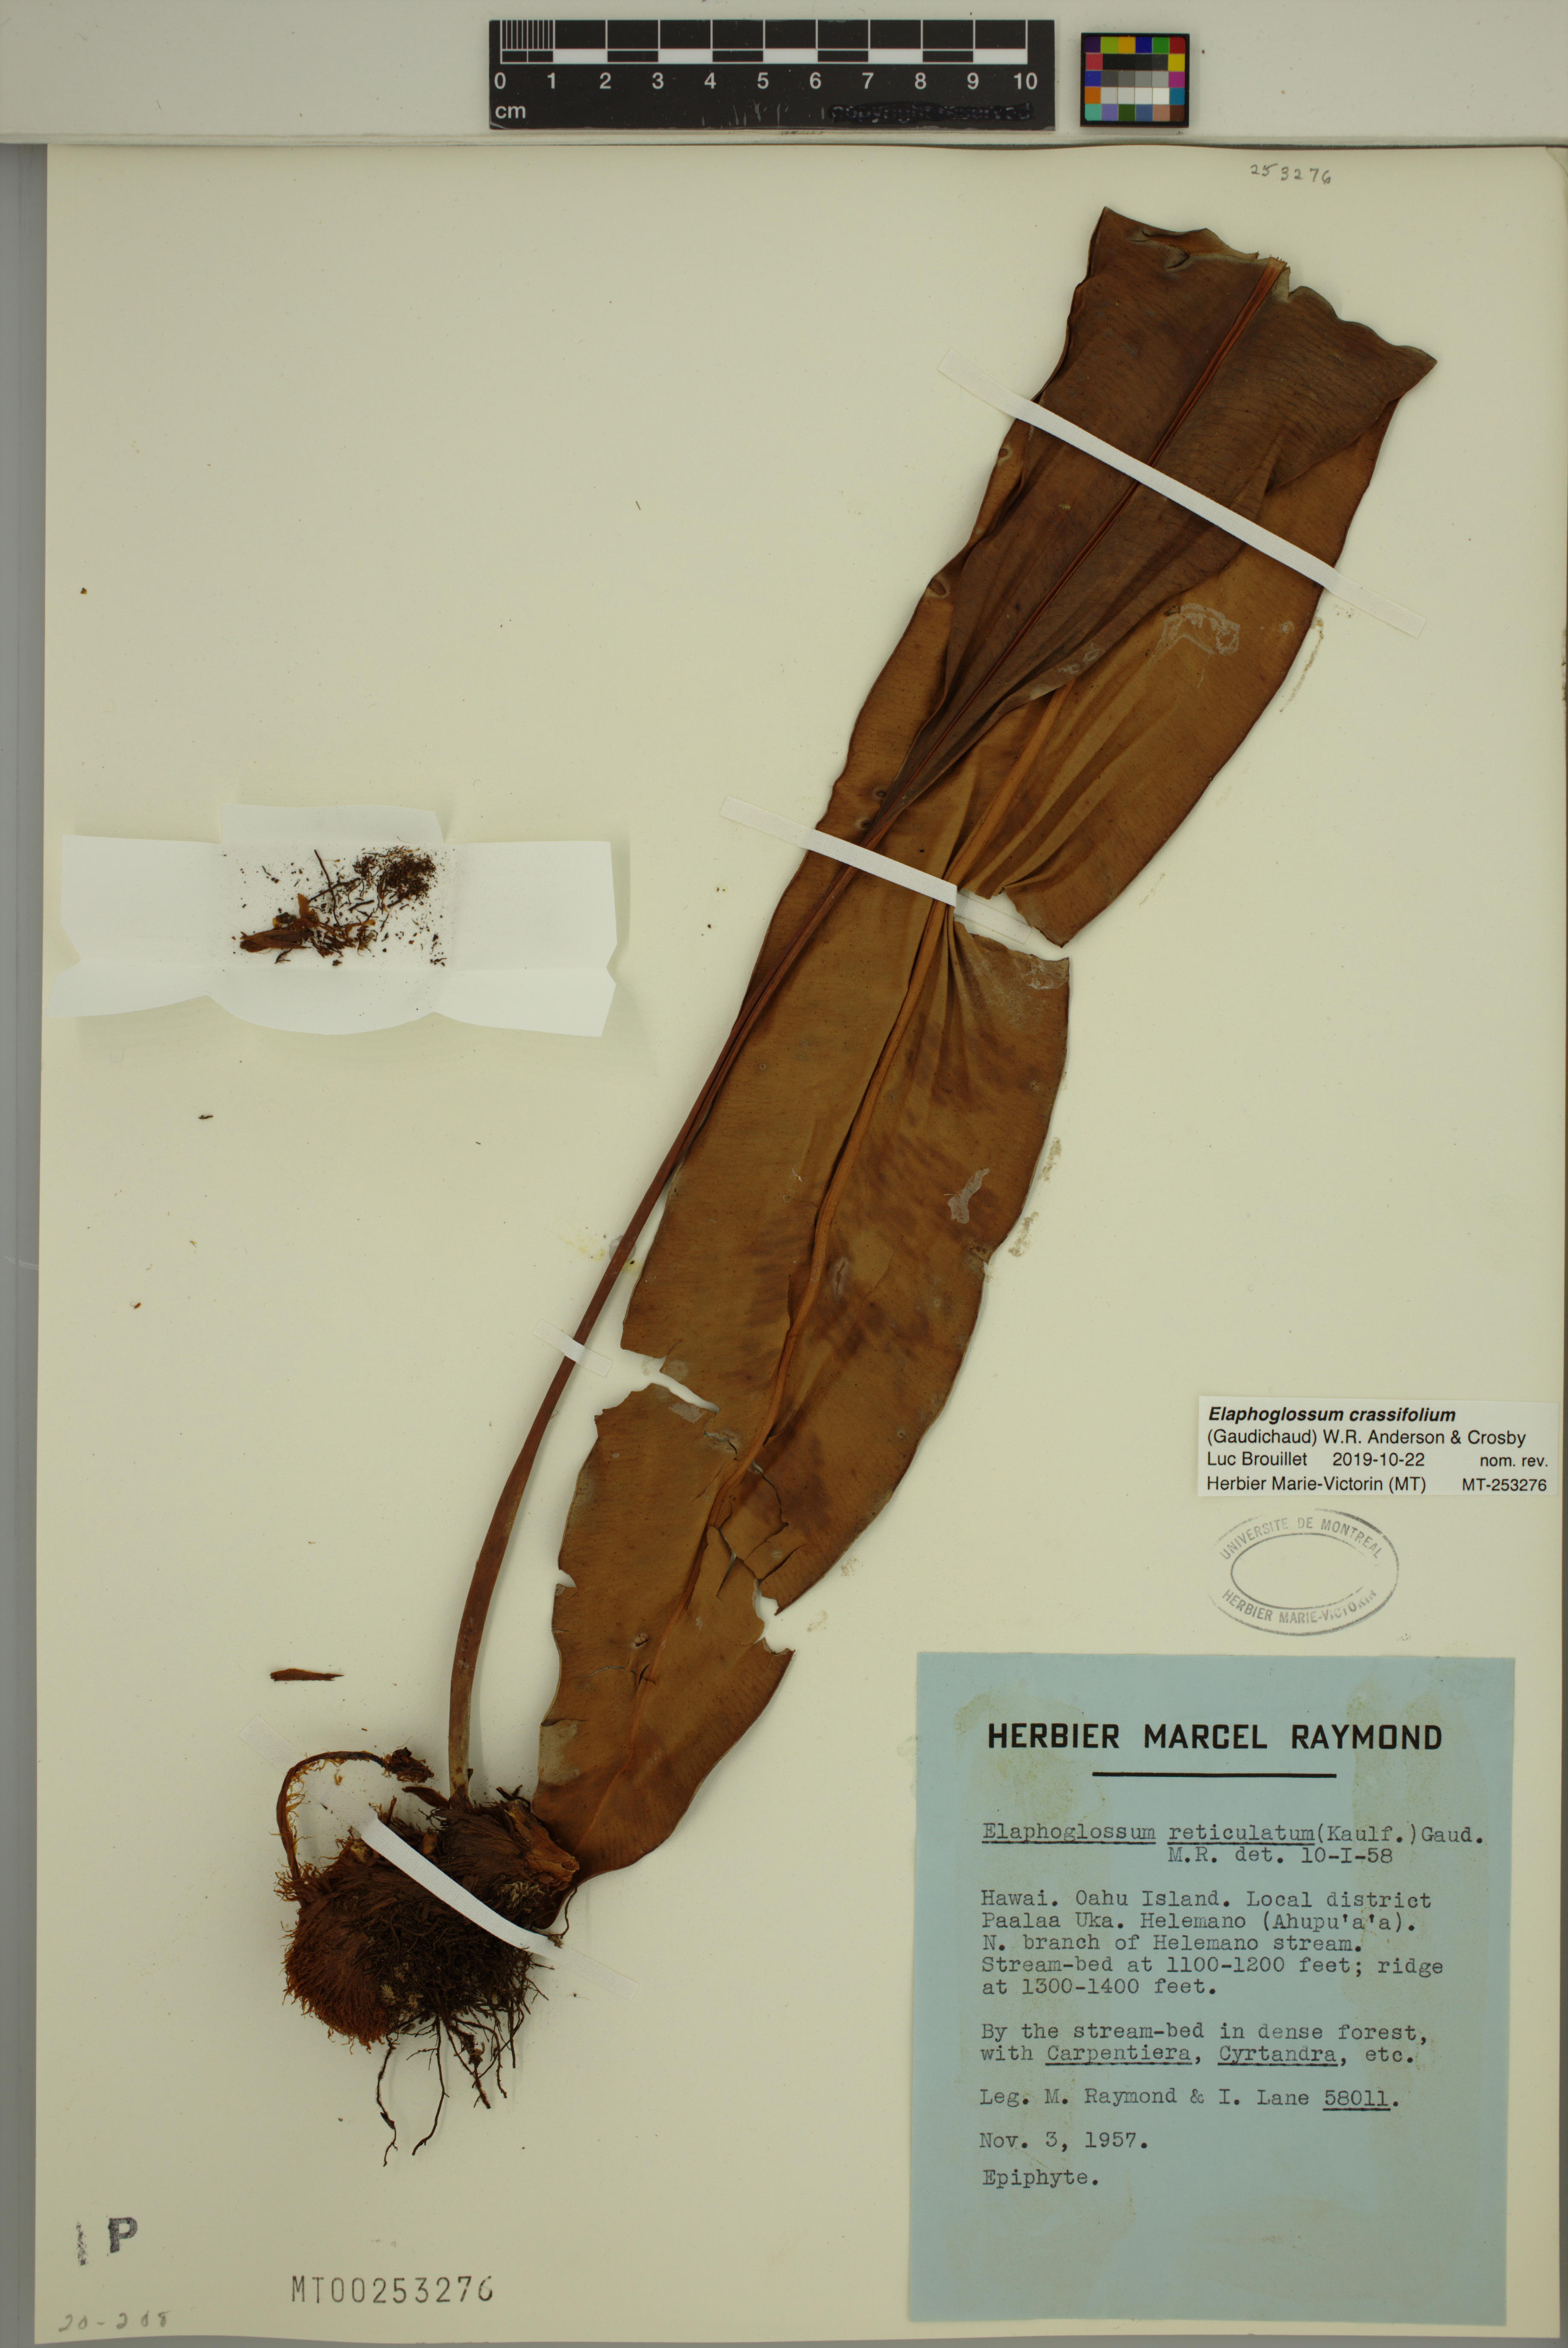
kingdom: Plantae
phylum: Tracheophyta
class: Polypodiopsida
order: Polypodiales
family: Dryopteridaceae
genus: Elaphoglossum
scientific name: Elaphoglossum crassifolium
